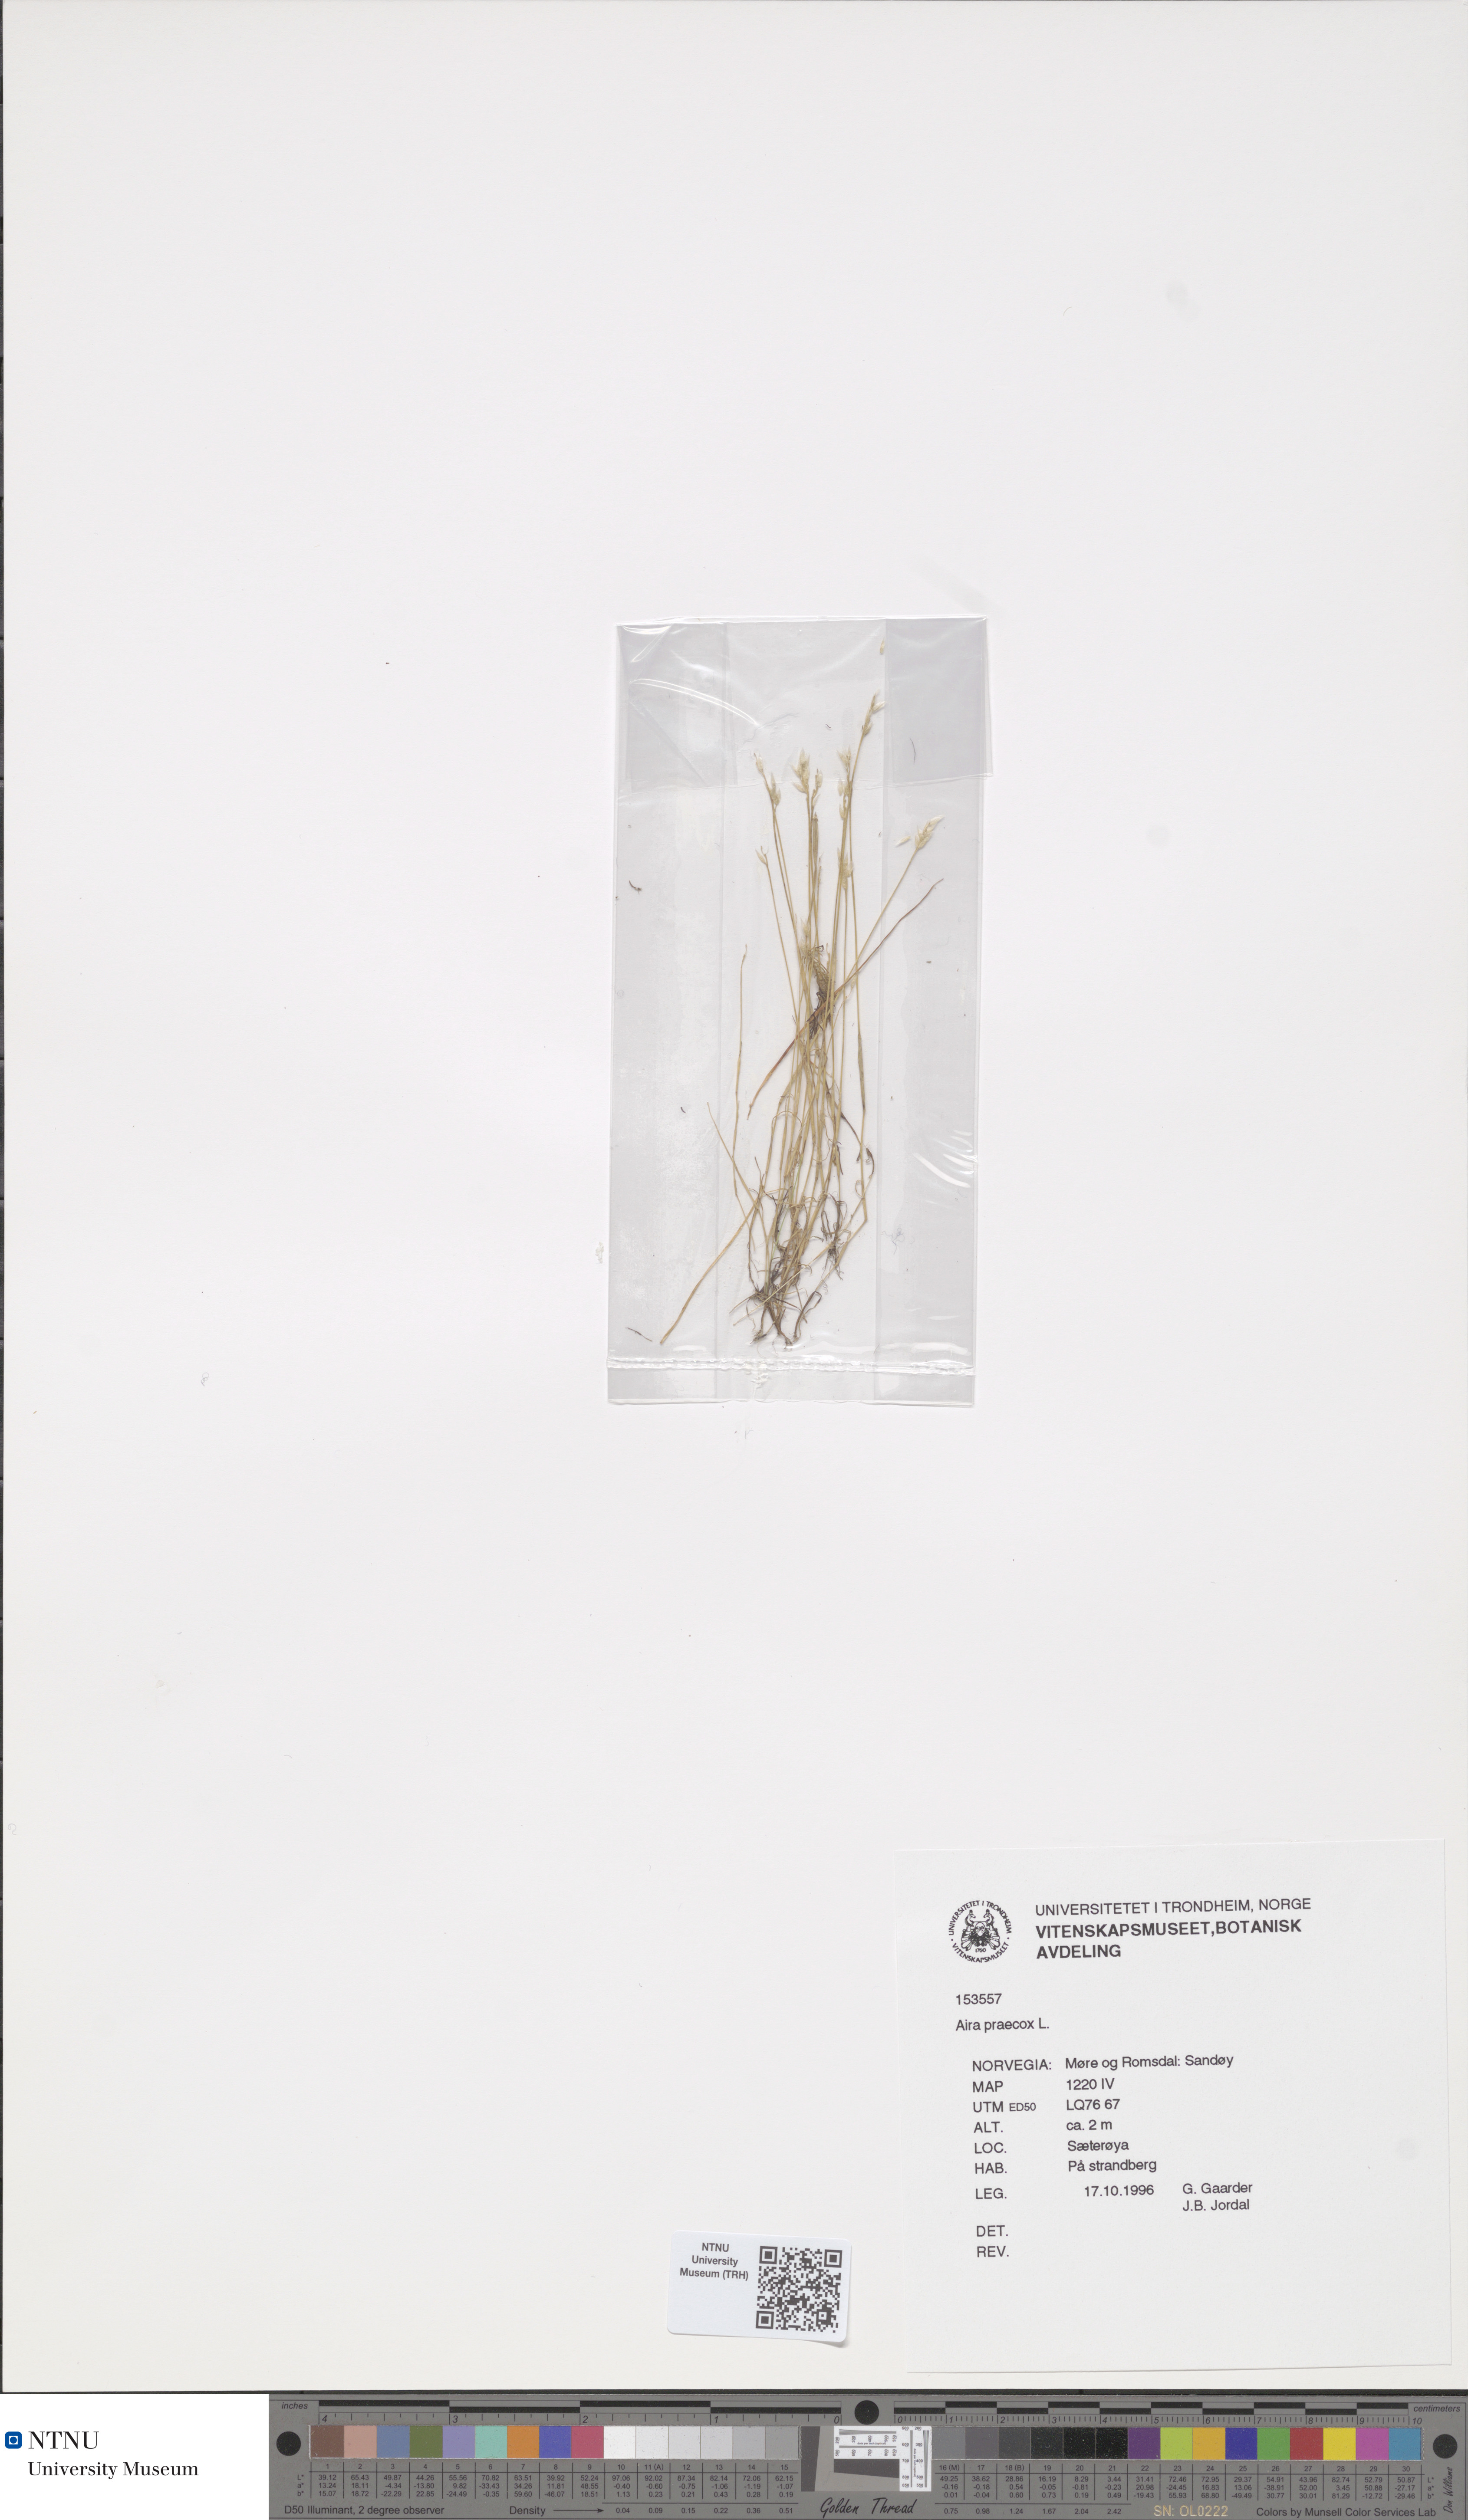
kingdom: Plantae
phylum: Tracheophyta
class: Liliopsida
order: Poales
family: Poaceae
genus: Aira
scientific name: Aira praecox
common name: Early hair-grass
